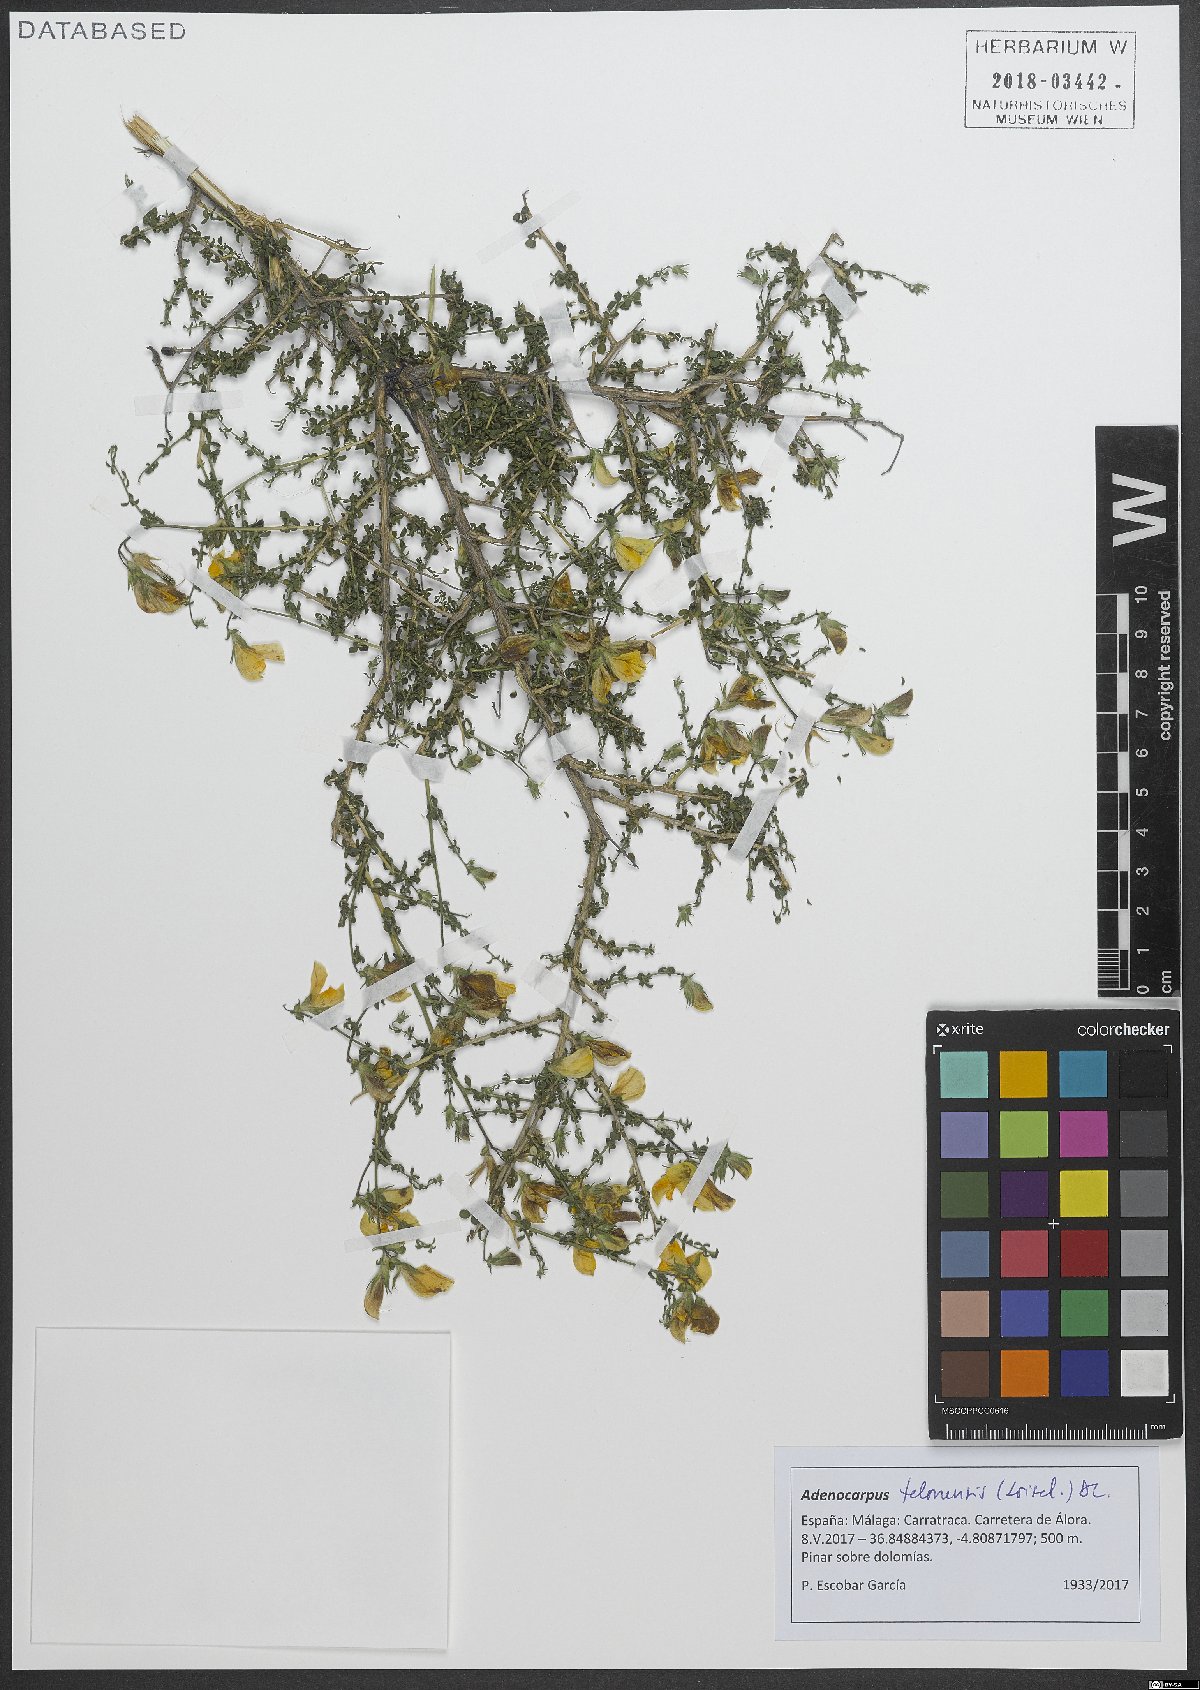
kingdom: Plantae
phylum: Tracheophyta
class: Magnoliopsida
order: Fabales
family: Fabaceae
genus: Adenocarpus
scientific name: Adenocarpus telonensis
